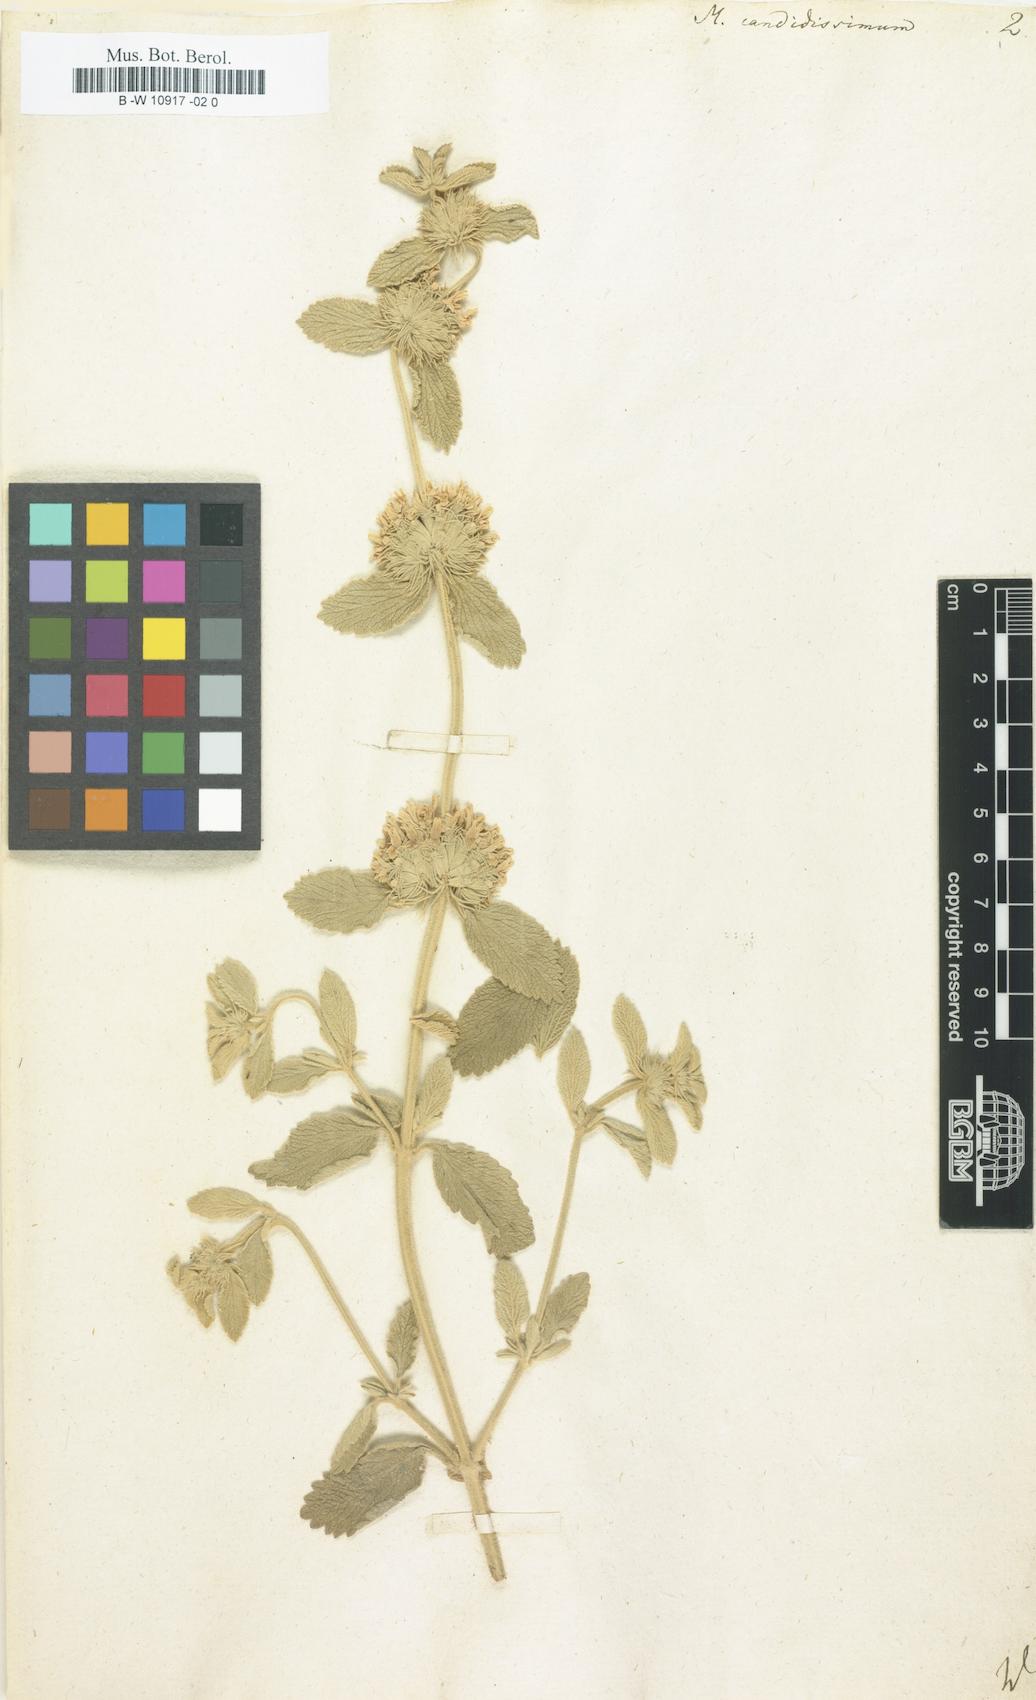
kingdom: Plantae
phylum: Tracheophyta
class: Magnoliopsida
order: Lamiales
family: Lamiaceae
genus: Marrubium
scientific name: Marrubium peregrinum
